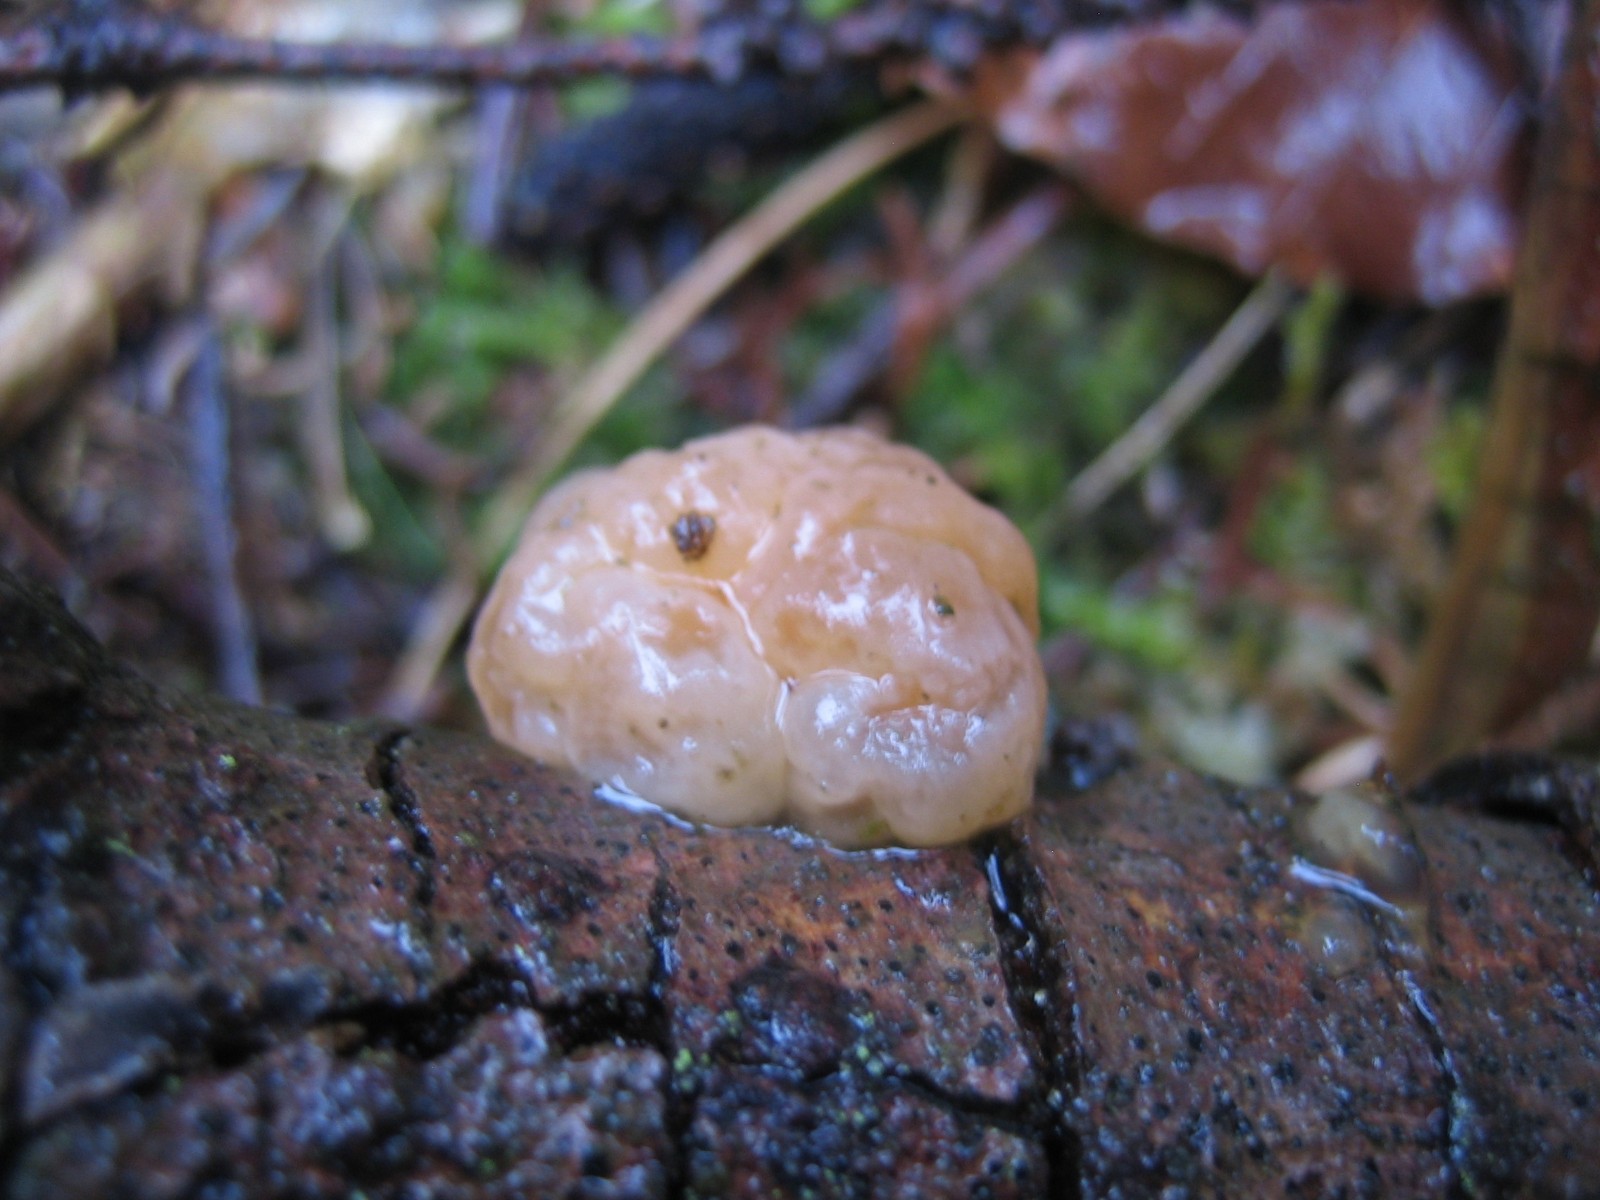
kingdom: Fungi
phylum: Basidiomycota
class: Tremellomycetes
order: Tremellales
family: Naemateliaceae
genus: Naematelia
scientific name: Naematelia encephala
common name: fyrre-bævresvamp
